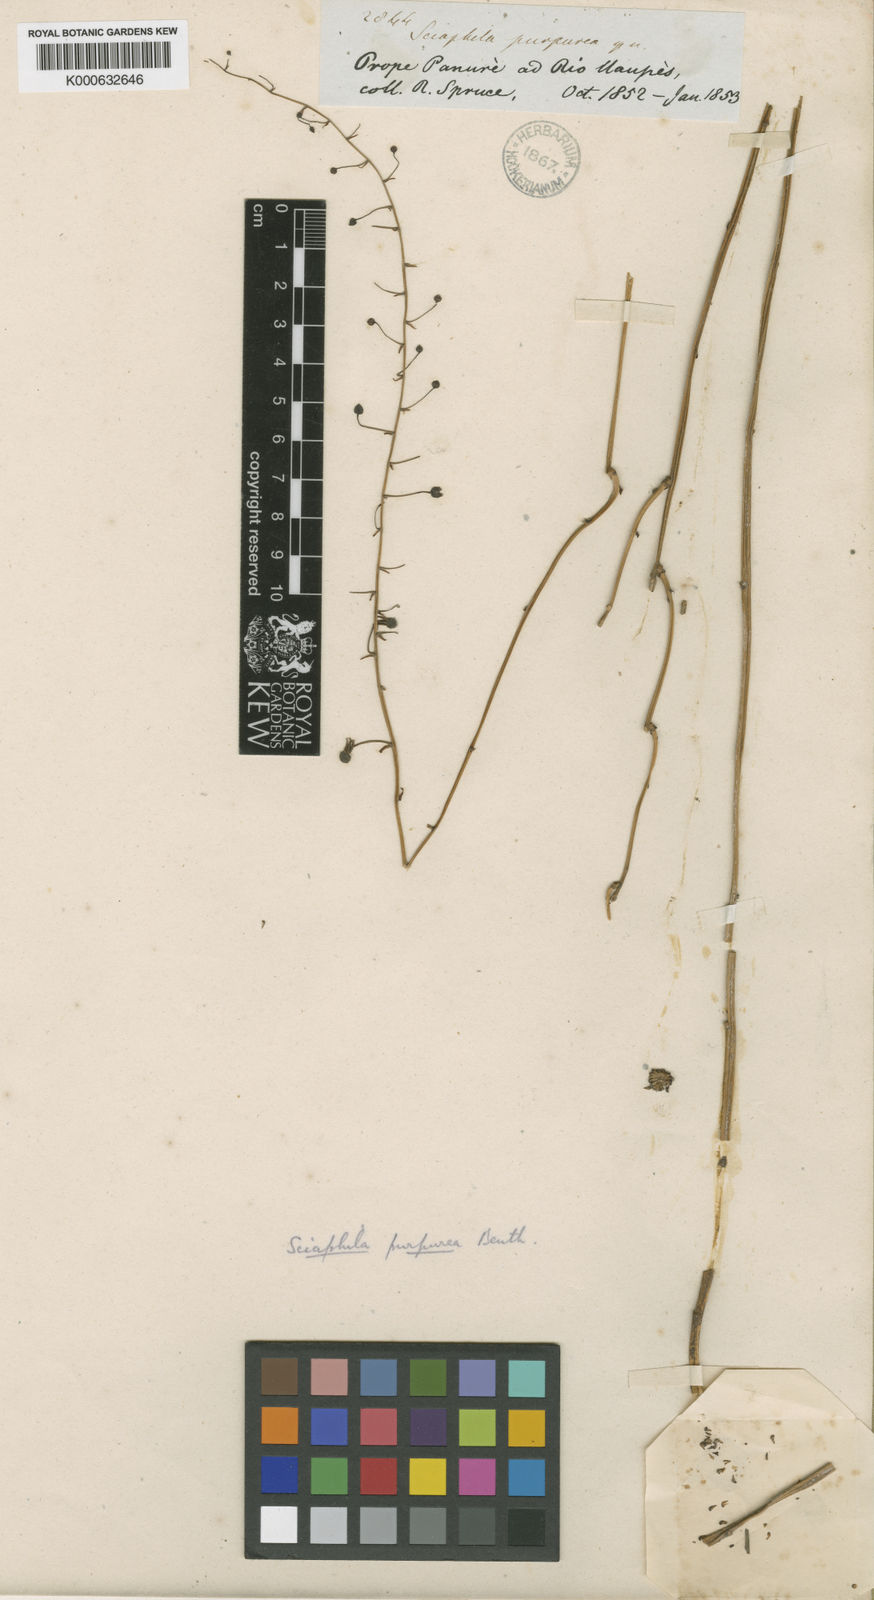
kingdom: Plantae
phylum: Tracheophyta
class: Liliopsida
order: Pandanales
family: Triuridaceae
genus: Sciaphila
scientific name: Sciaphila purpurea
